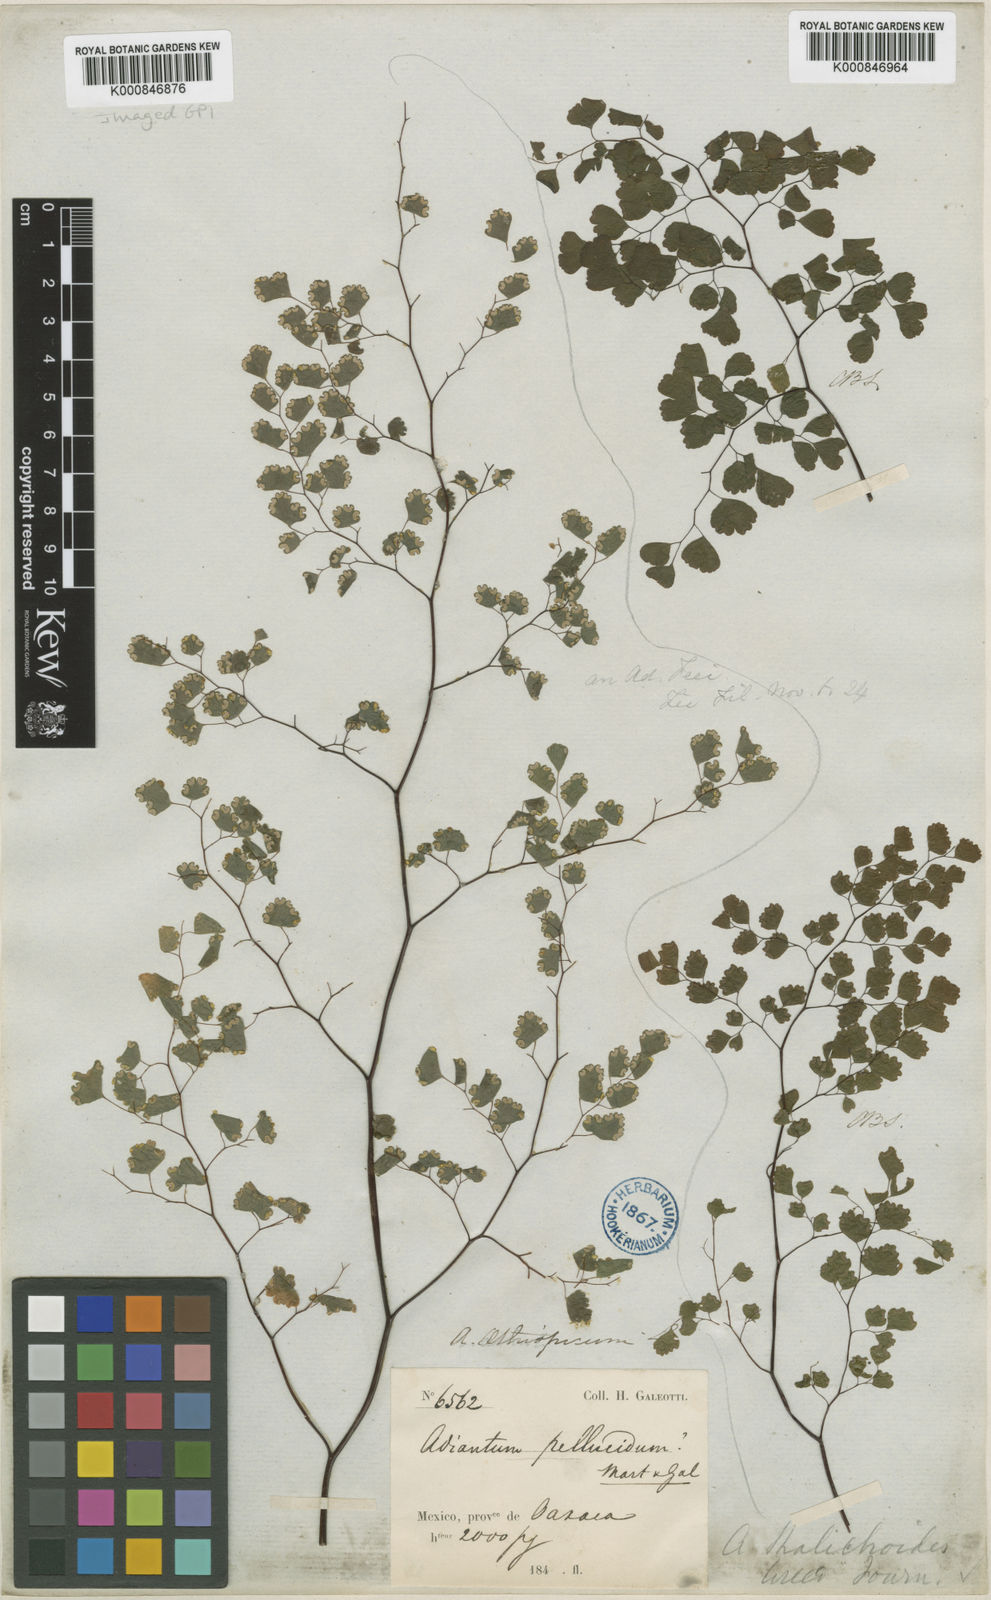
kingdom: Plantae
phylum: Tracheophyta
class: Polypodiopsida
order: Polypodiales
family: Pteridaceae
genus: Adiantum
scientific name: Adiantum poiretii
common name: Mexican maidenhair
